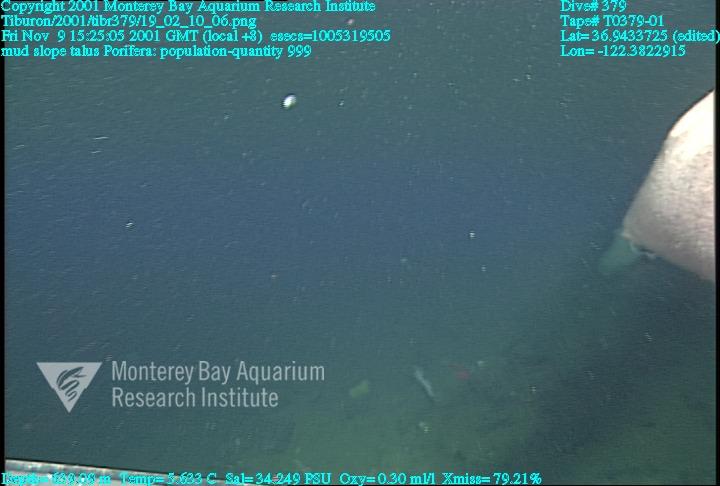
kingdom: Animalia
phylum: Porifera
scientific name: Porifera
